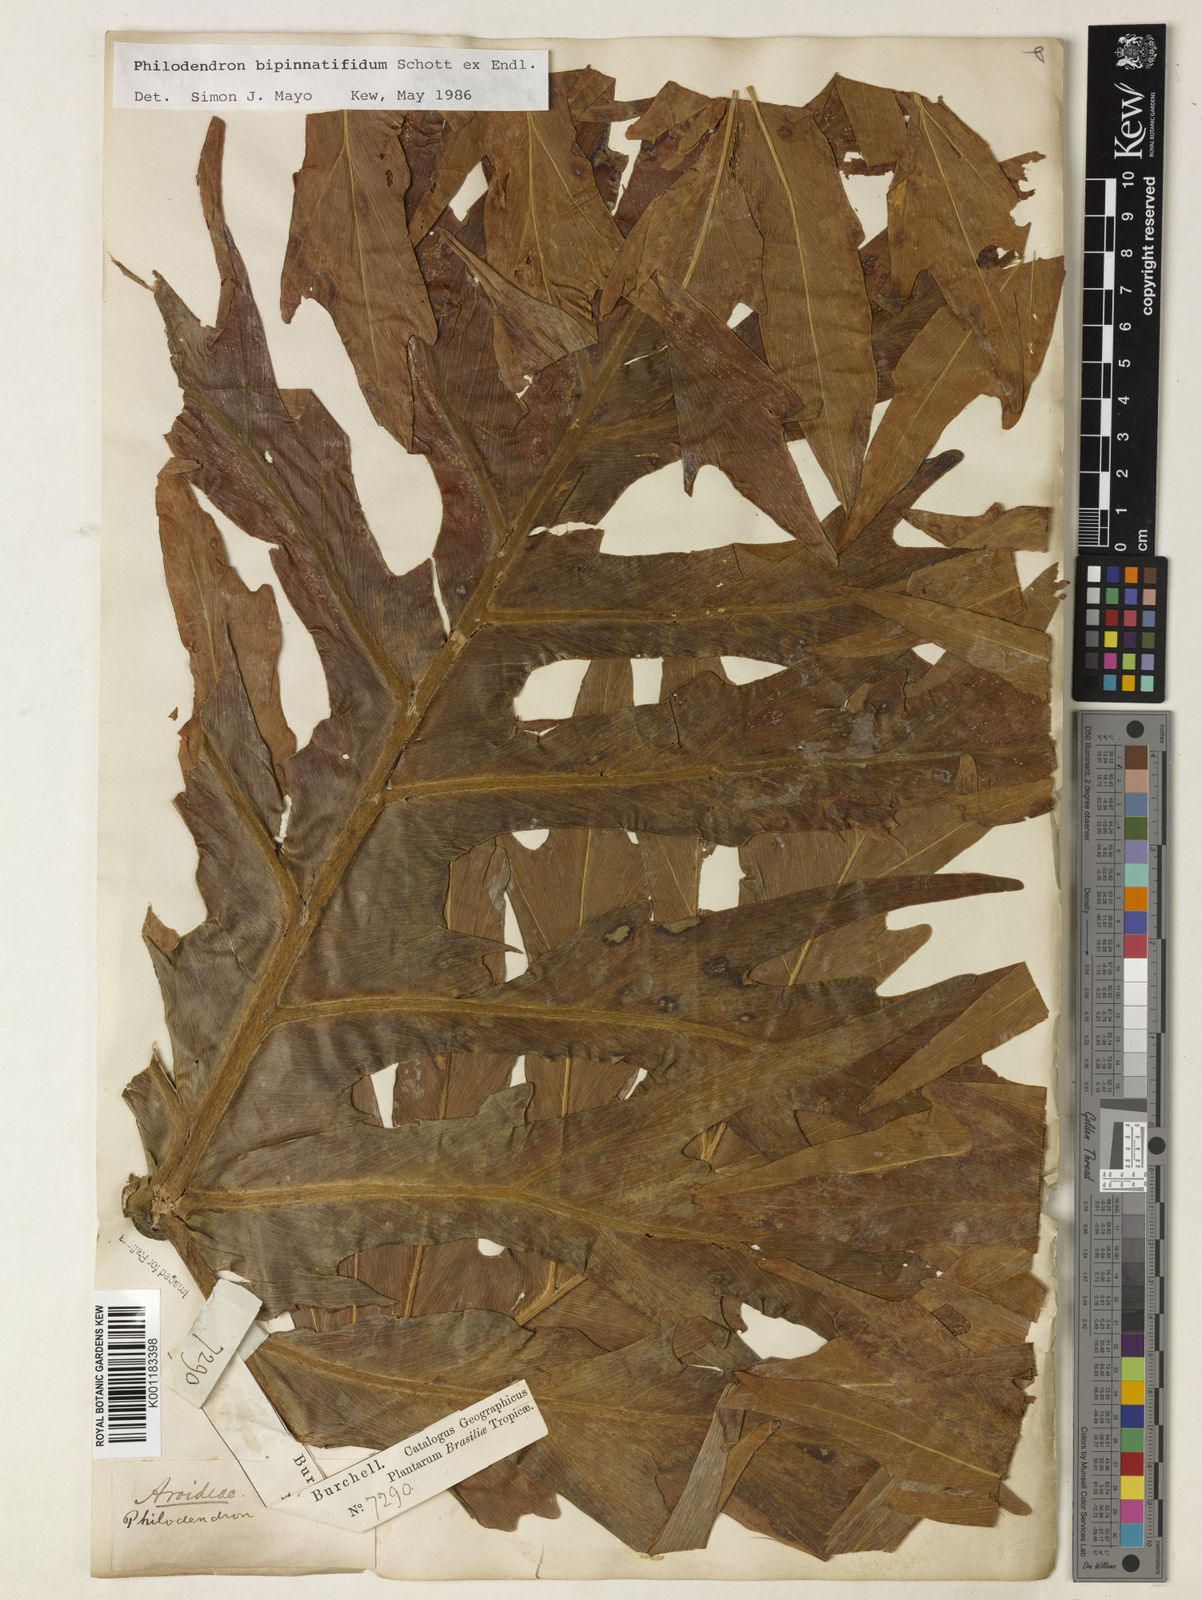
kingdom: Plantae
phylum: Tracheophyta
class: Liliopsida
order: Alismatales
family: Araceae
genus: Philodendron
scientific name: Philodendron
